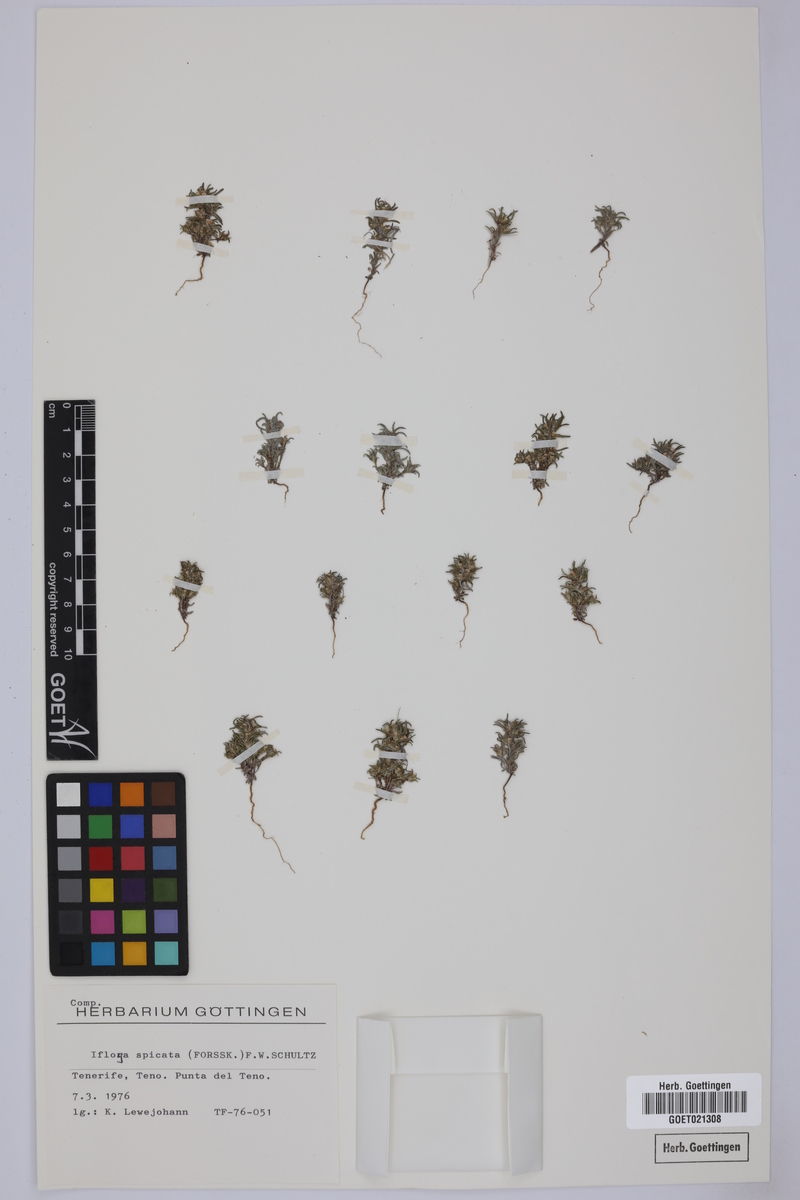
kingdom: Plantae
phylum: Tracheophyta
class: Magnoliopsida
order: Asterales
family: Asteraceae
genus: Ifloga
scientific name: Ifloga spicata
